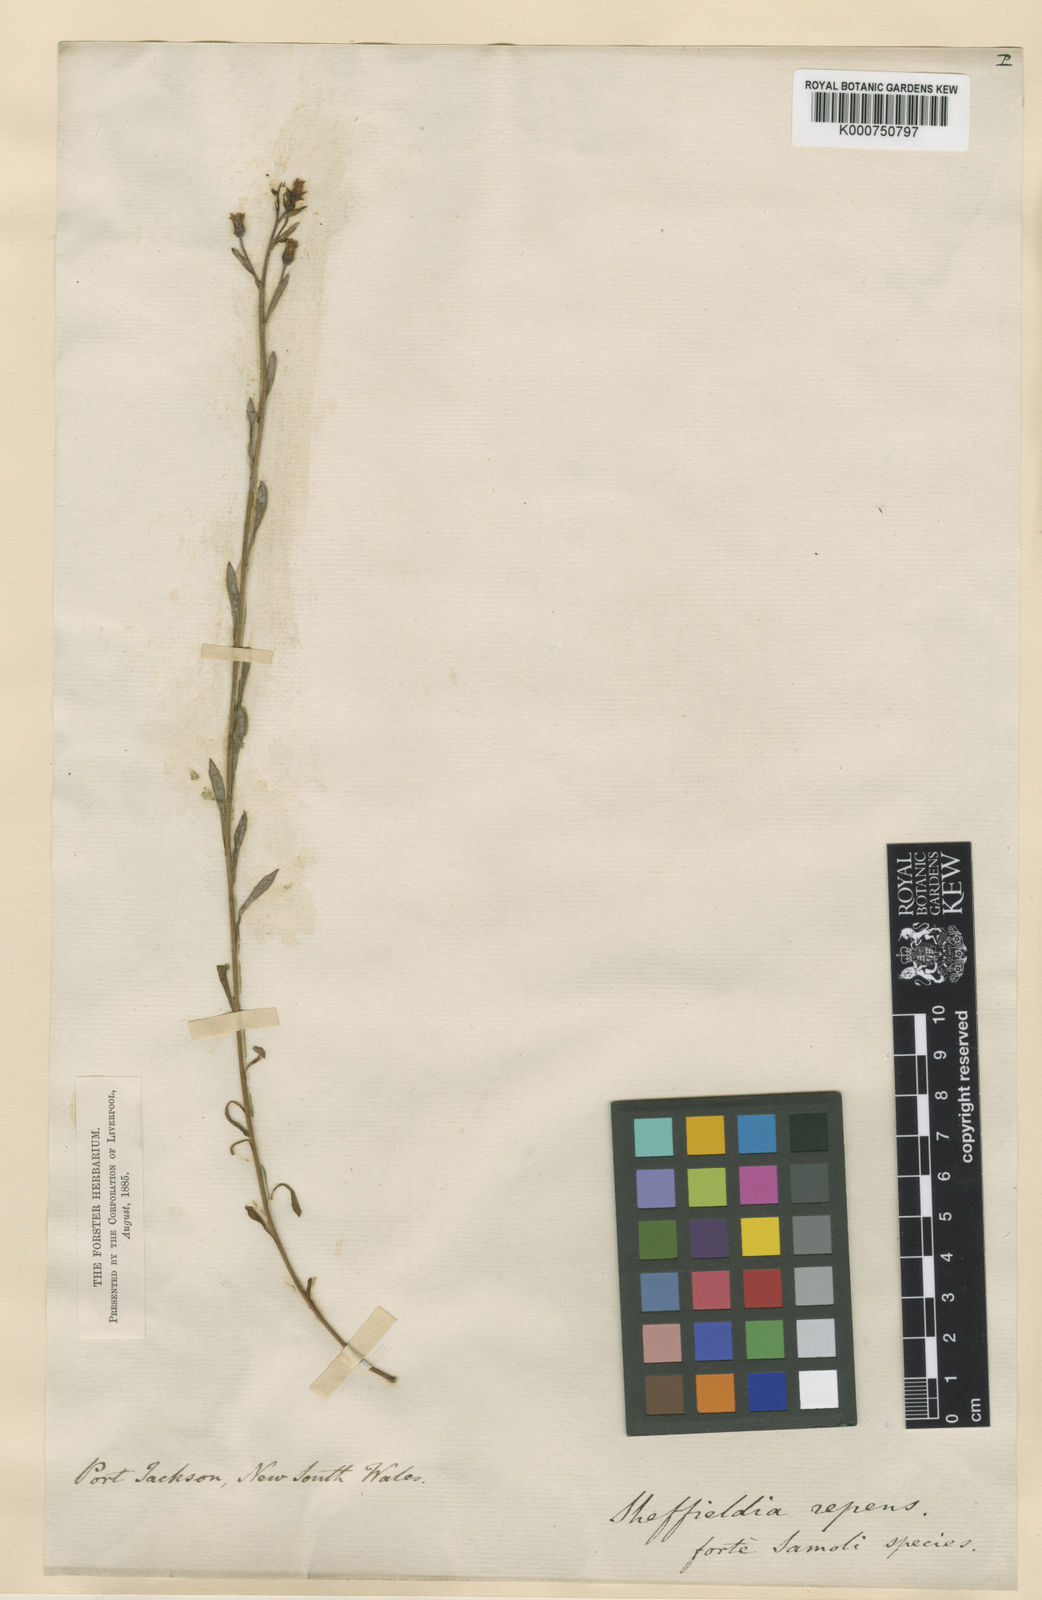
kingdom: Plantae
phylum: Tracheophyta
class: Magnoliopsida
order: Ericales
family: Primulaceae
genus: Samolus
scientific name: Samolus repens
